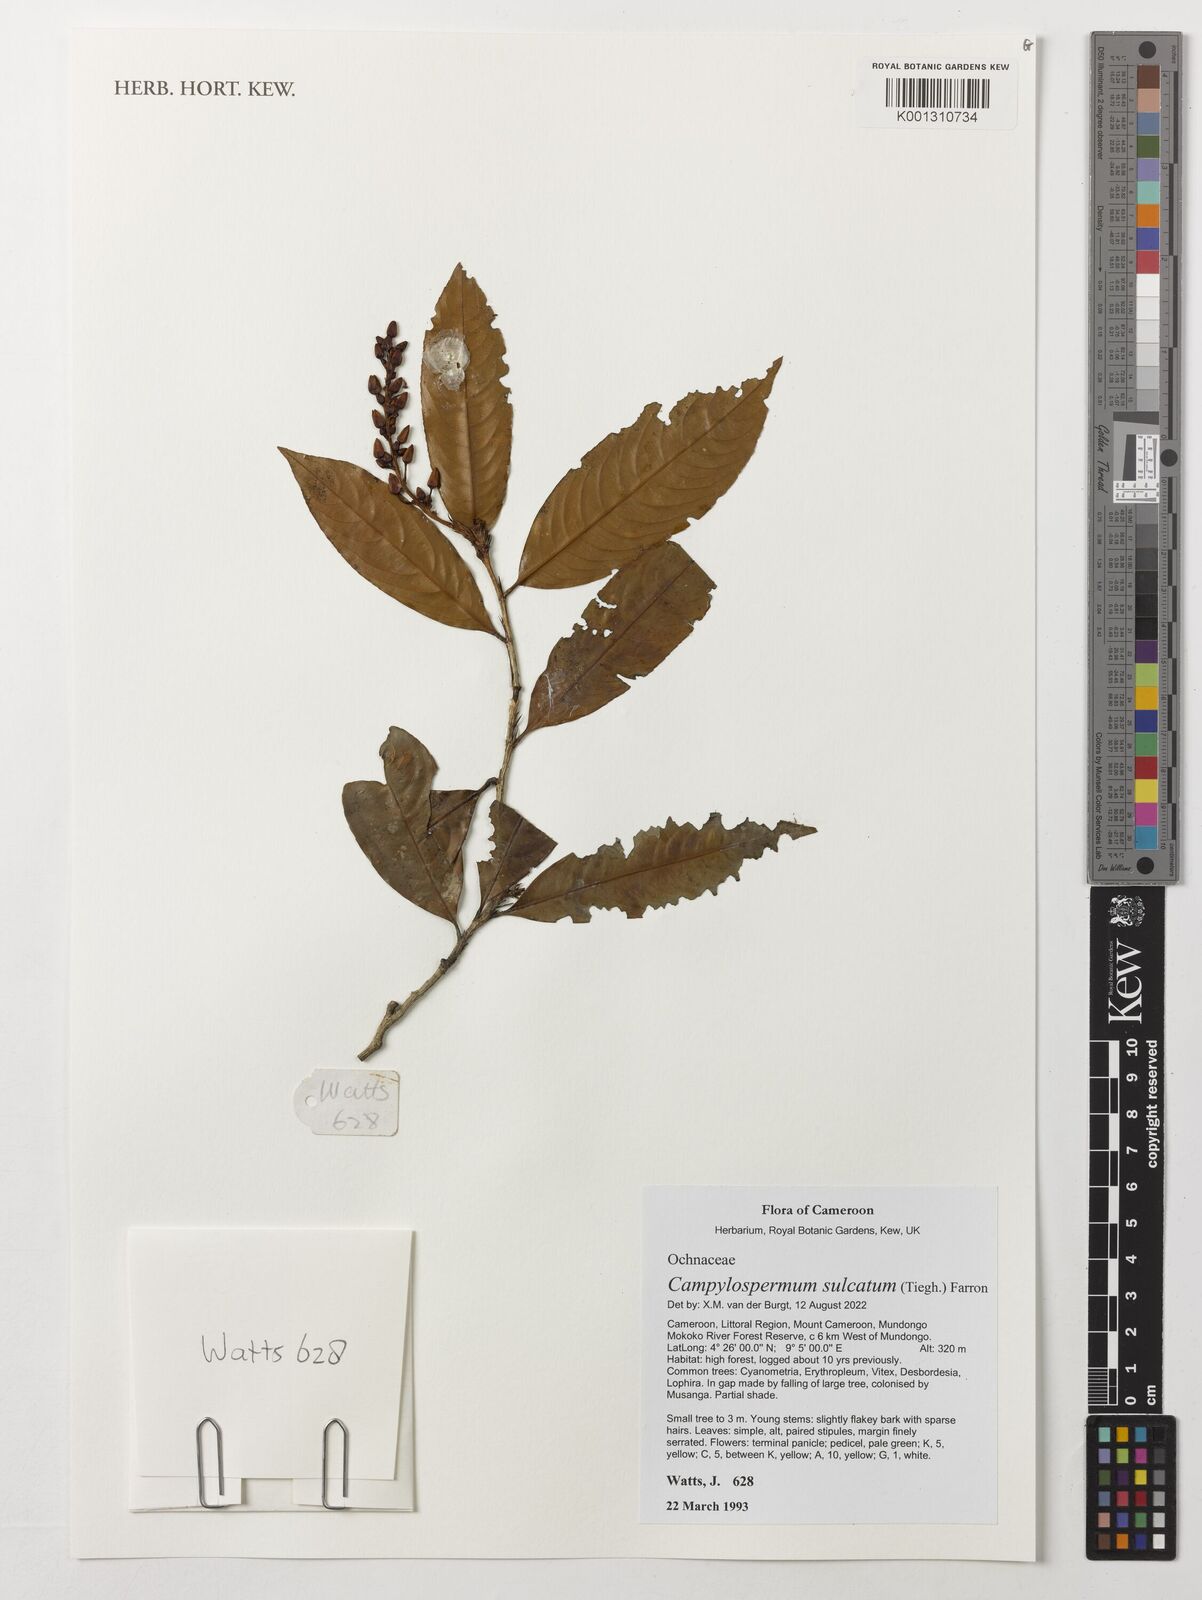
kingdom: Plantae
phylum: Tracheophyta
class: Magnoliopsida
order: Malpighiales
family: Ochnaceae
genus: Campylospermum
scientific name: Campylospermum sulcatum
